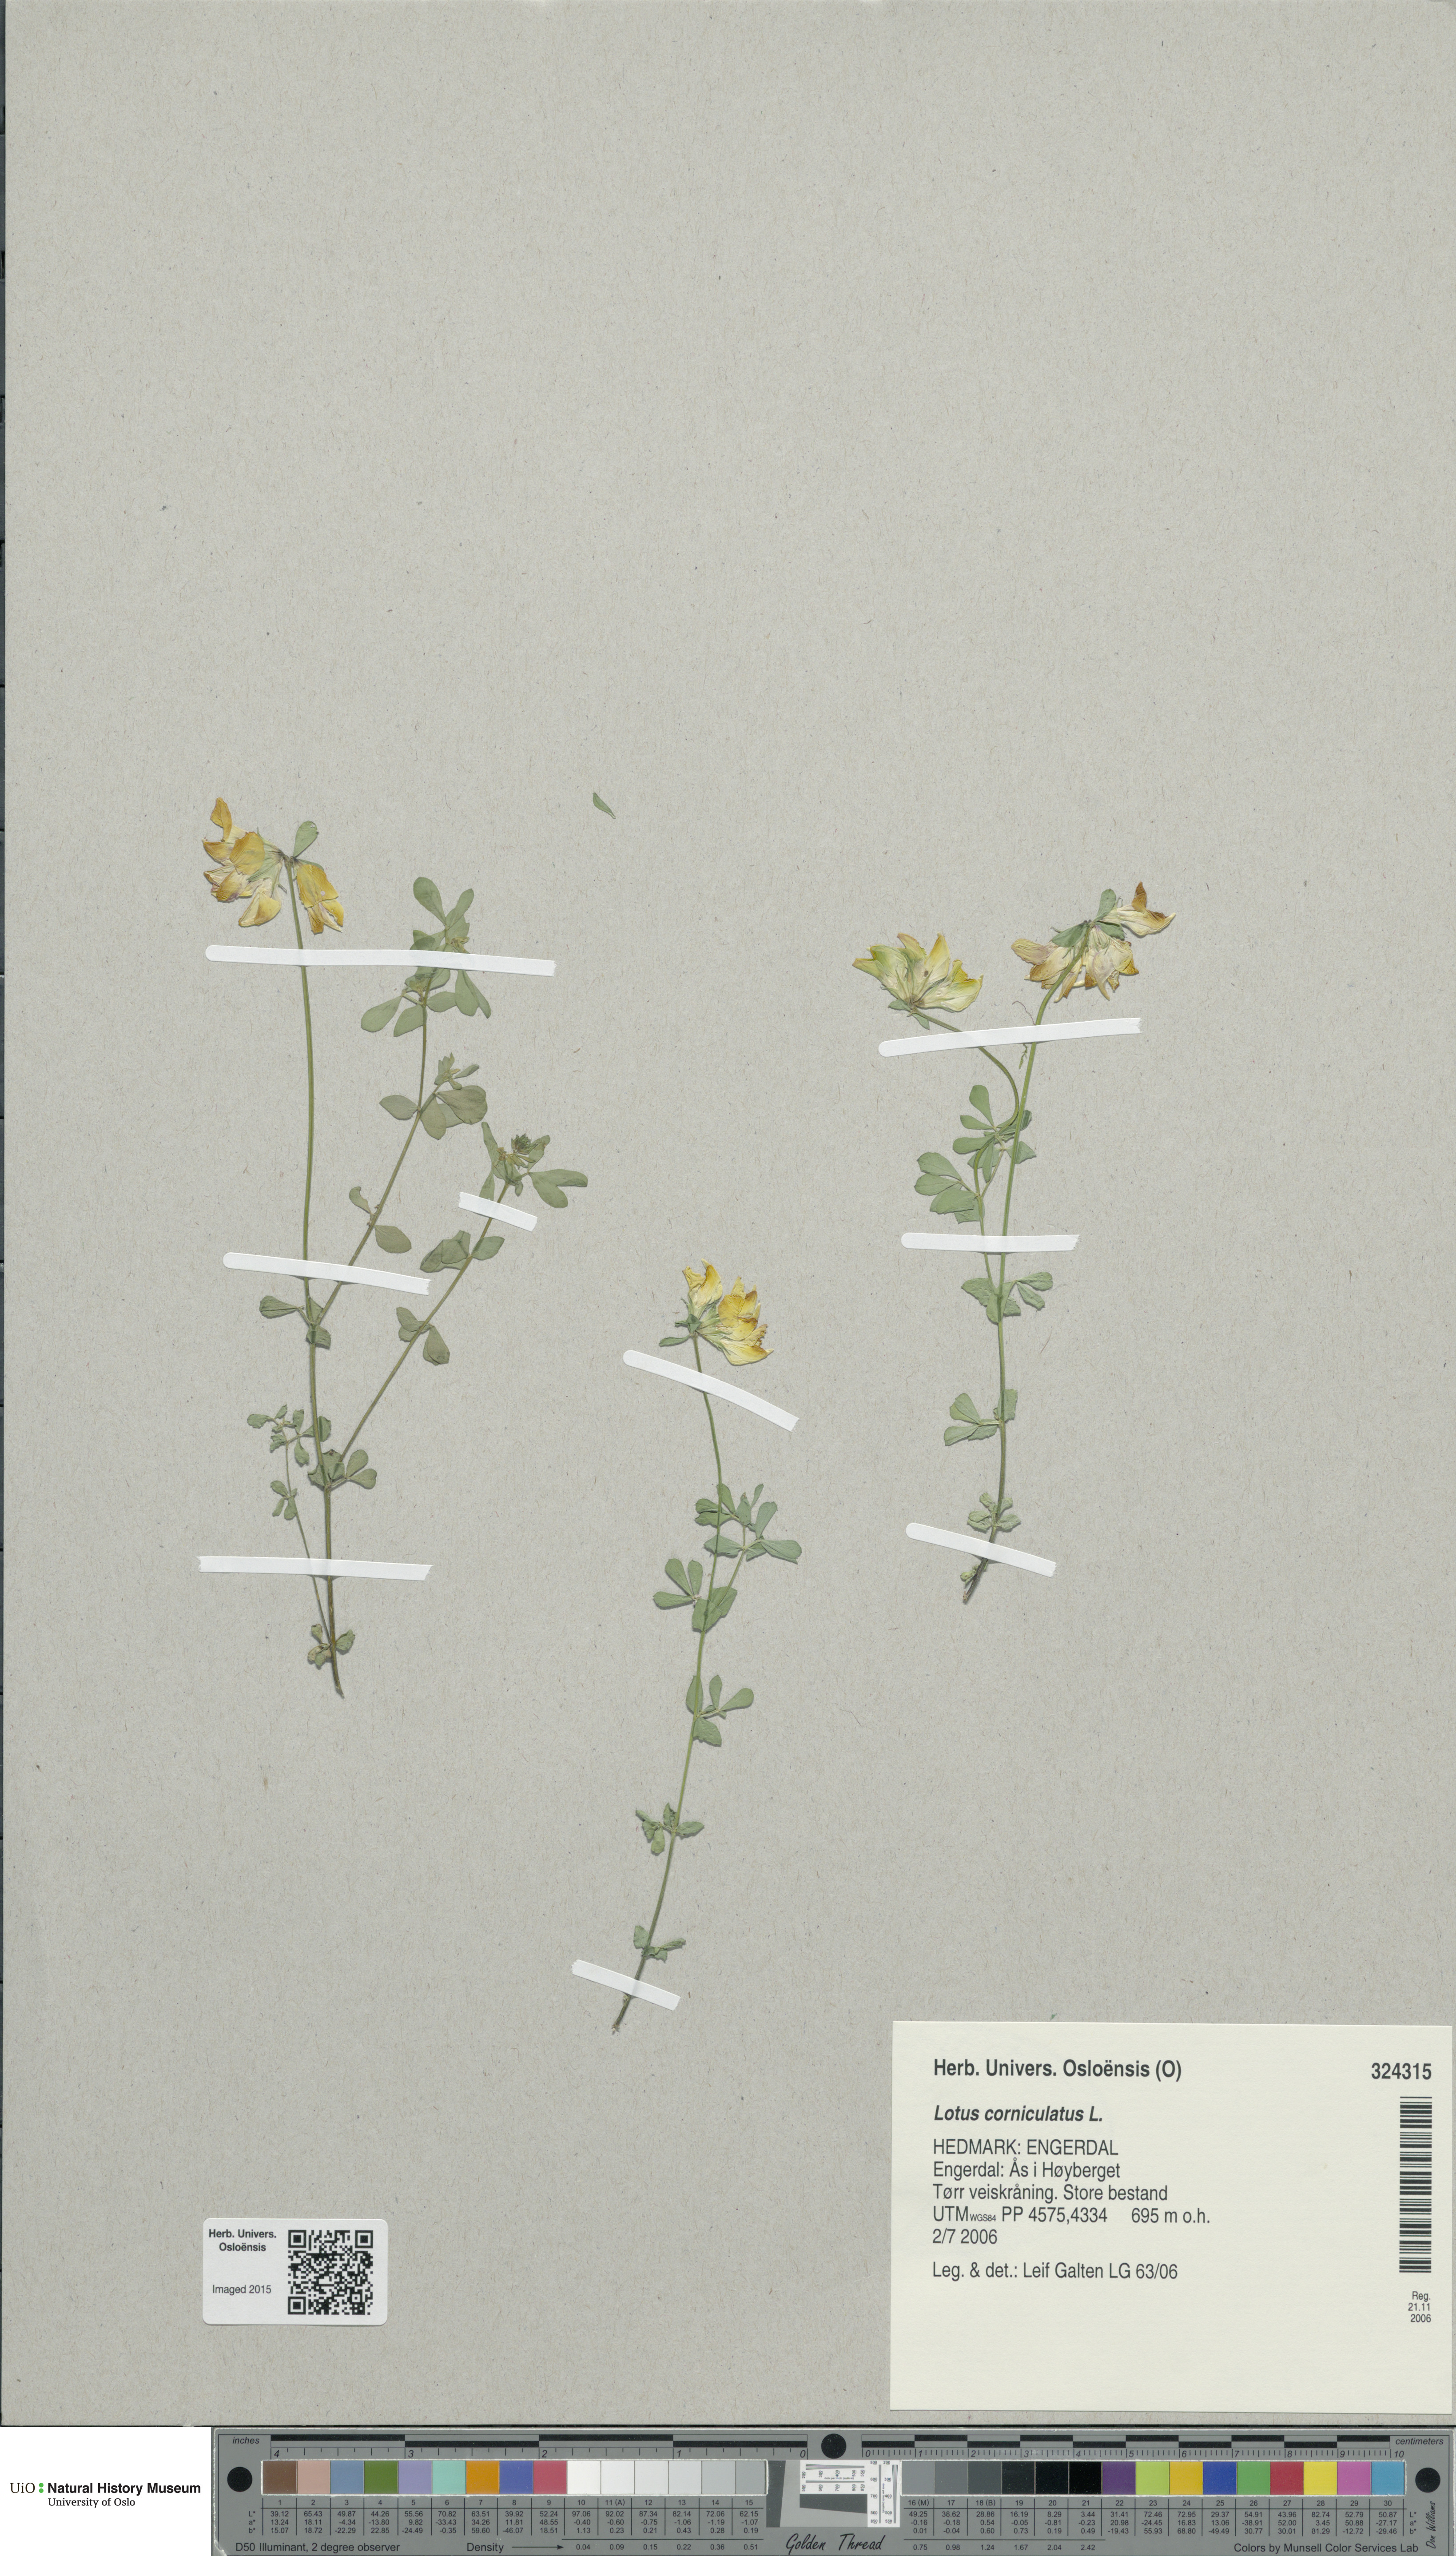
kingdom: Plantae
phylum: Tracheophyta
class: Magnoliopsida
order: Fabales
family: Fabaceae
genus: Lotus
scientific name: Lotus corniculatus
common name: Common bird's-foot-trefoil
